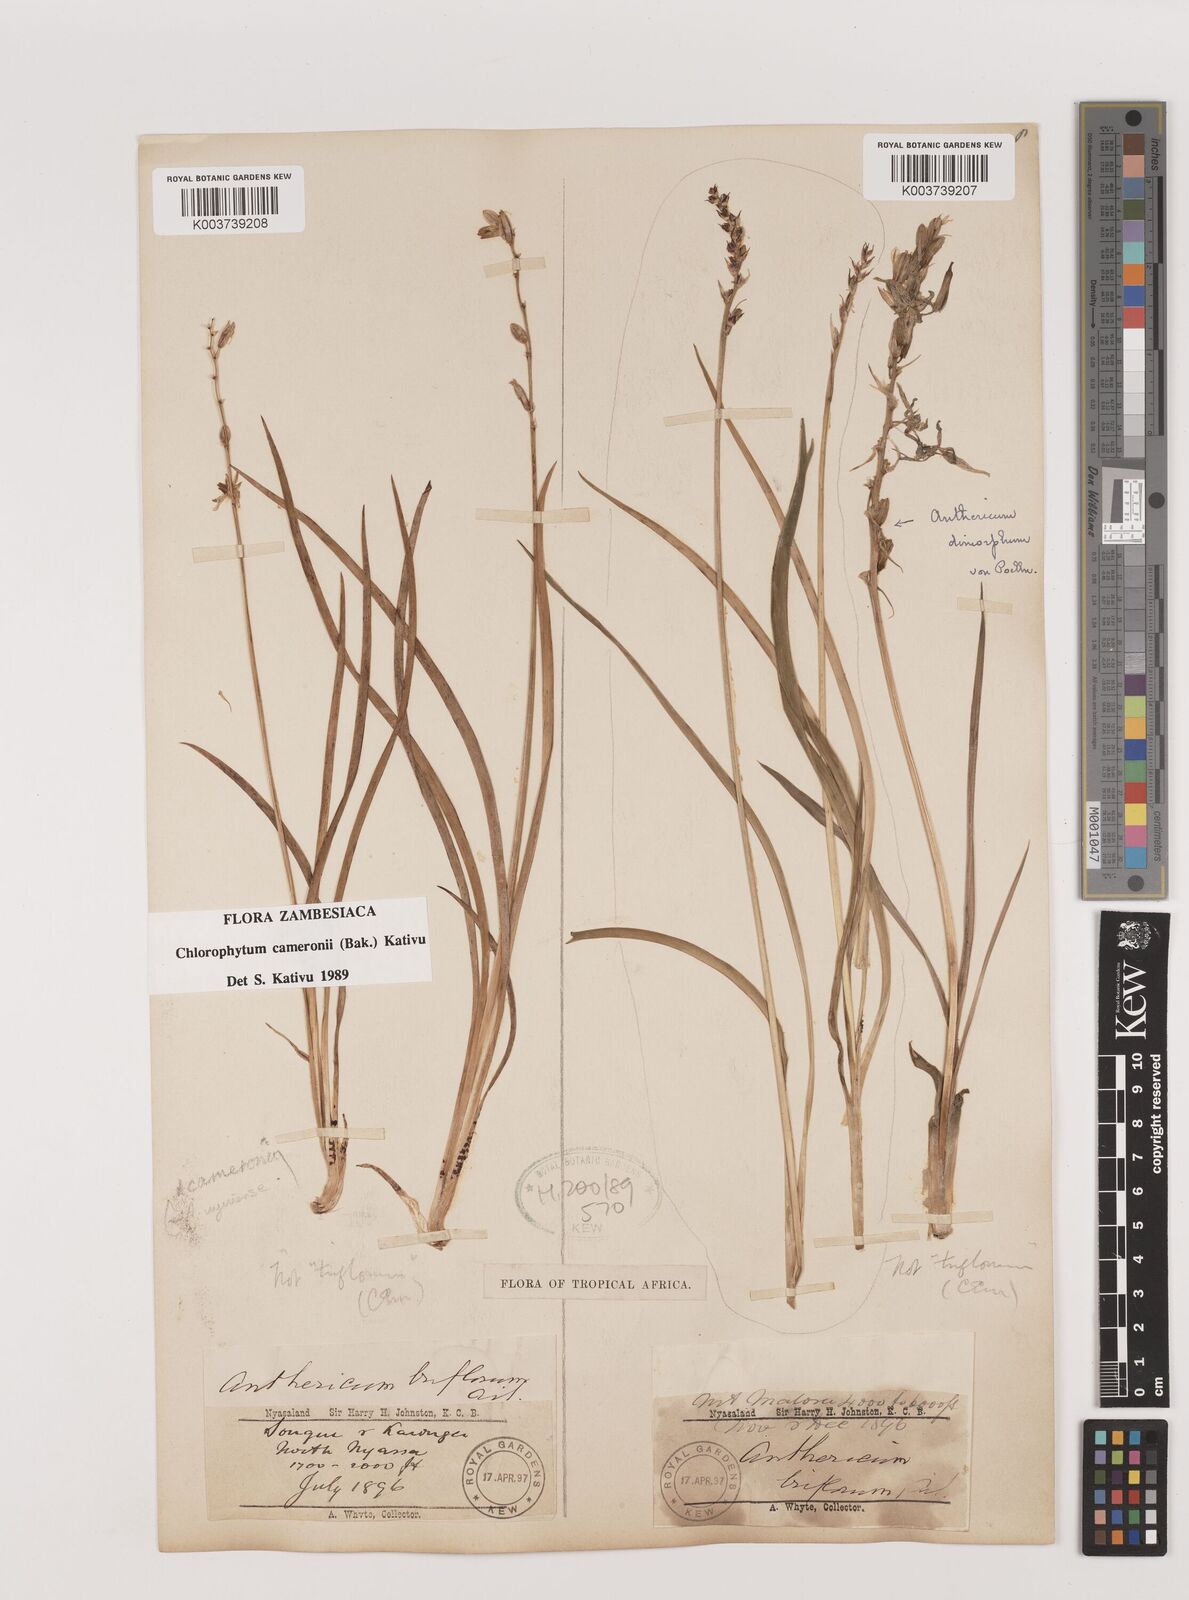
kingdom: Plantae
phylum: Tracheophyta
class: Liliopsida
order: Asparagales
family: Asparagaceae
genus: Chlorophytum
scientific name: Chlorophytum cameronii
